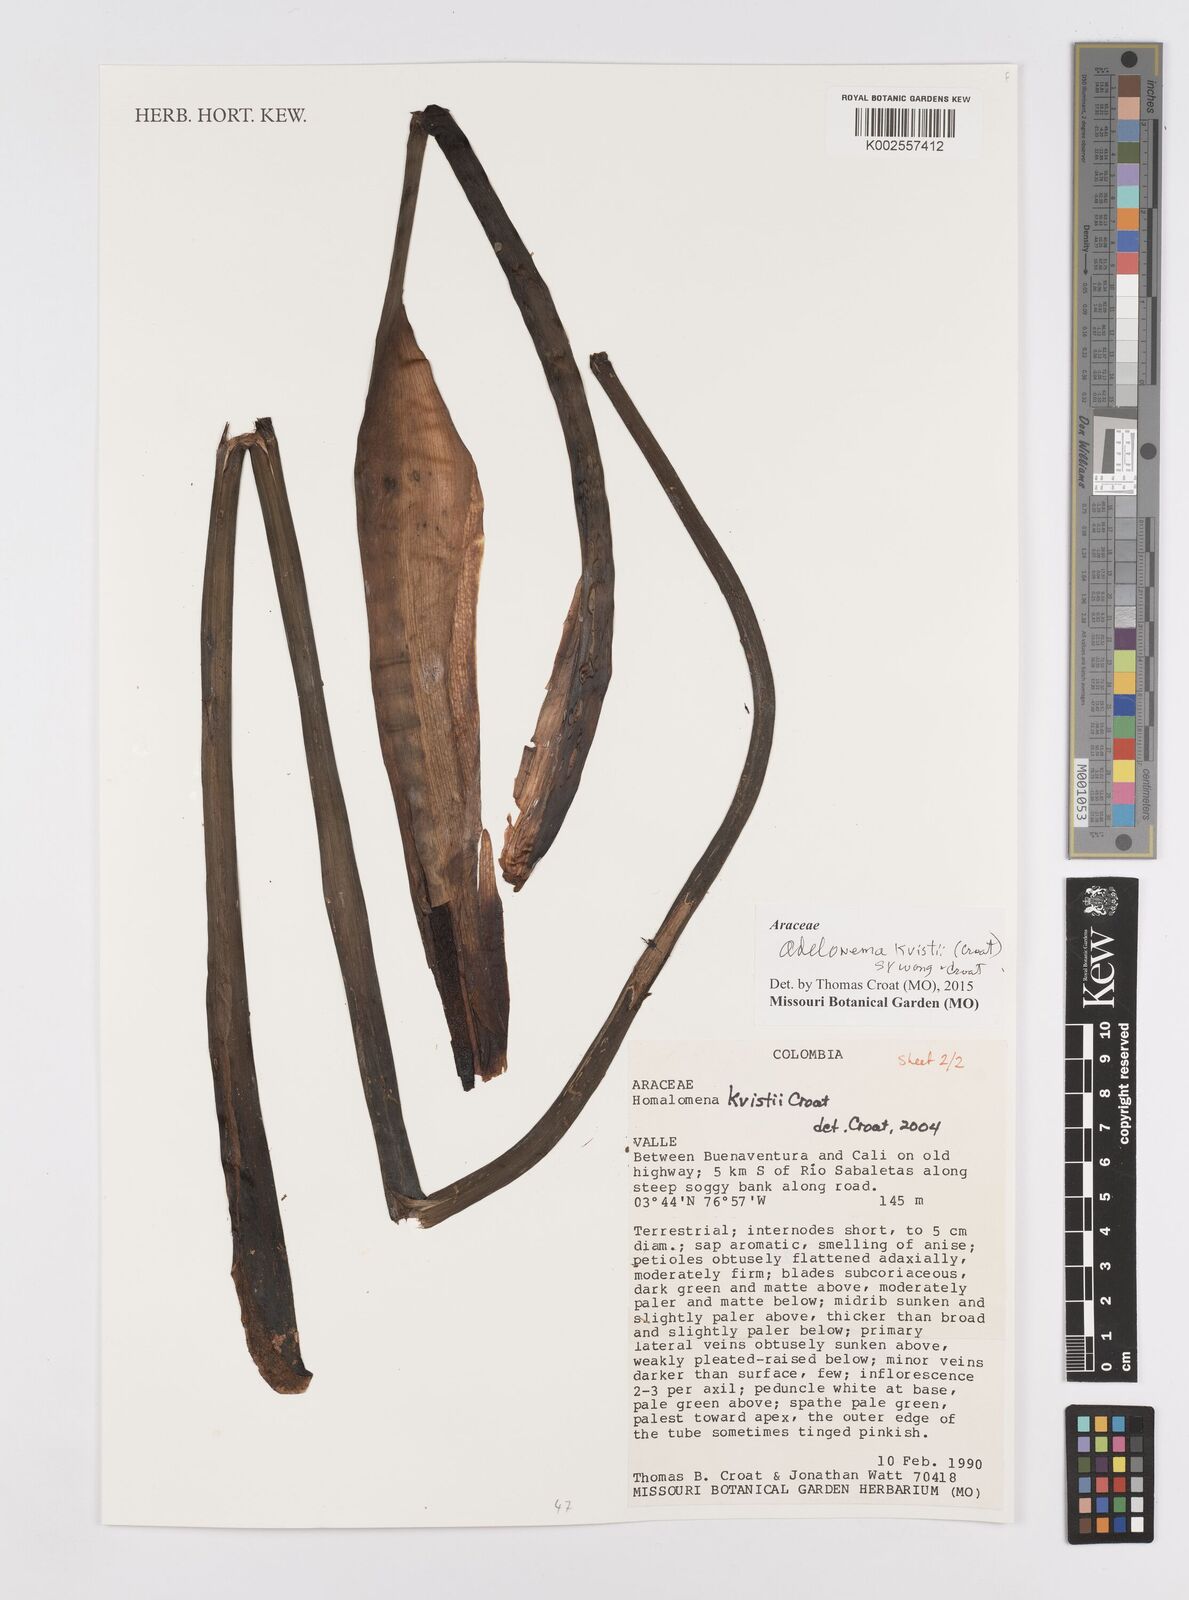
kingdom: Plantae
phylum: Tracheophyta
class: Liliopsida
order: Alismatales
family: Araceae
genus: Adelonema
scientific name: Adelonema kvistii
